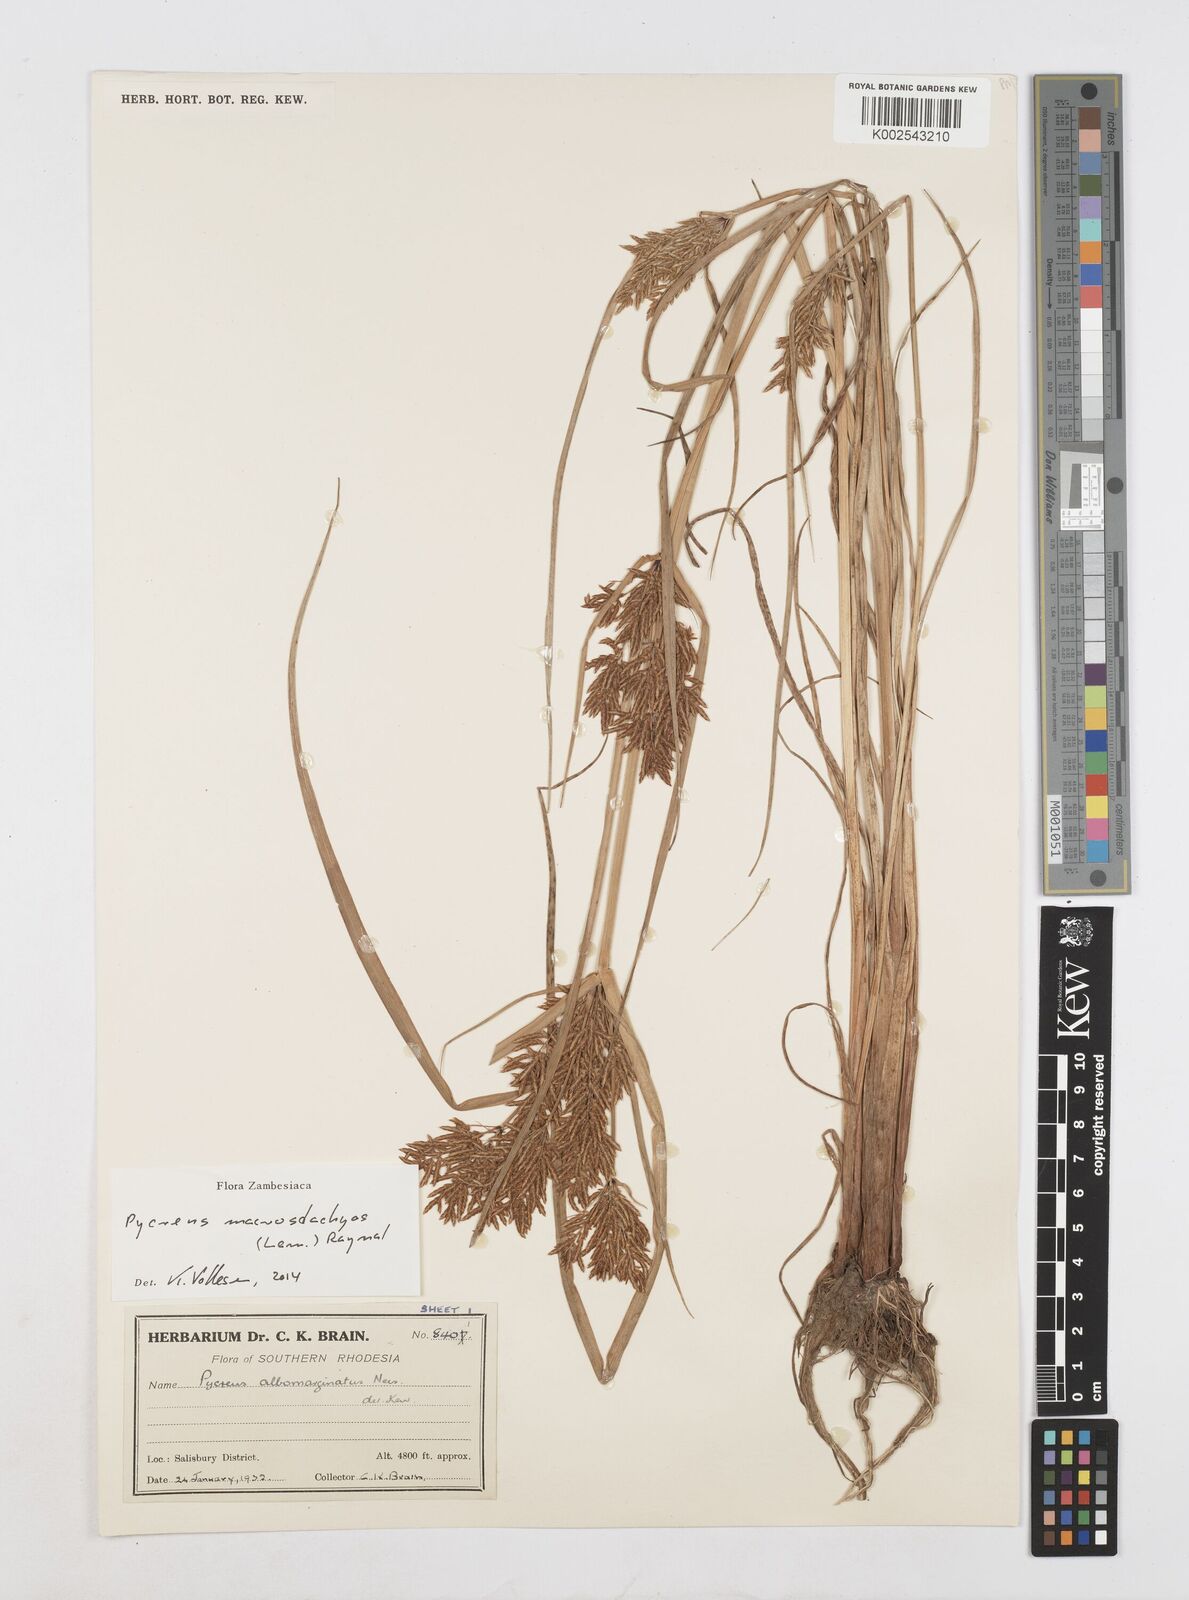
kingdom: Plantae
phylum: Tracheophyta
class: Liliopsida
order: Poales
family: Cyperaceae
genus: Cyperus
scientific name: Cyperus macrostachyos
